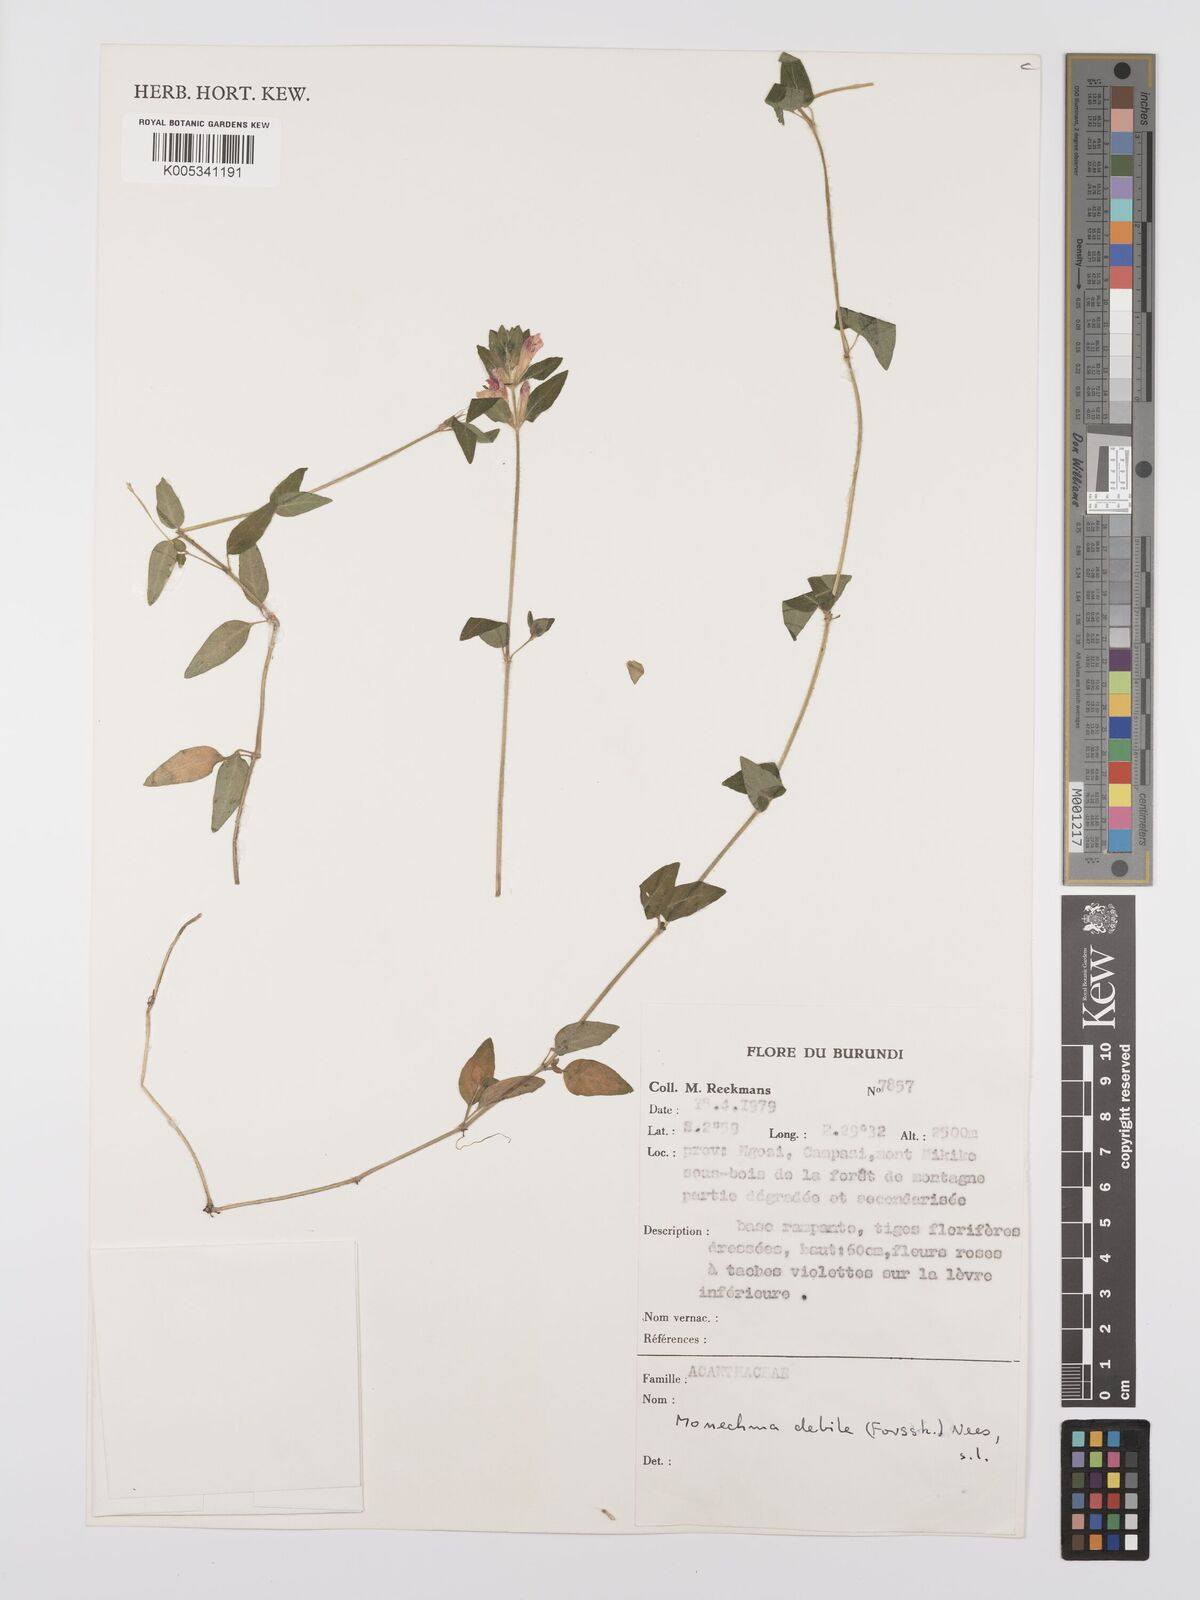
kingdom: Plantae
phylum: Tracheophyta
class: Magnoliopsida
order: Lamiales
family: Acanthaceae
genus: Justicia
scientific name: Justicia amanda
